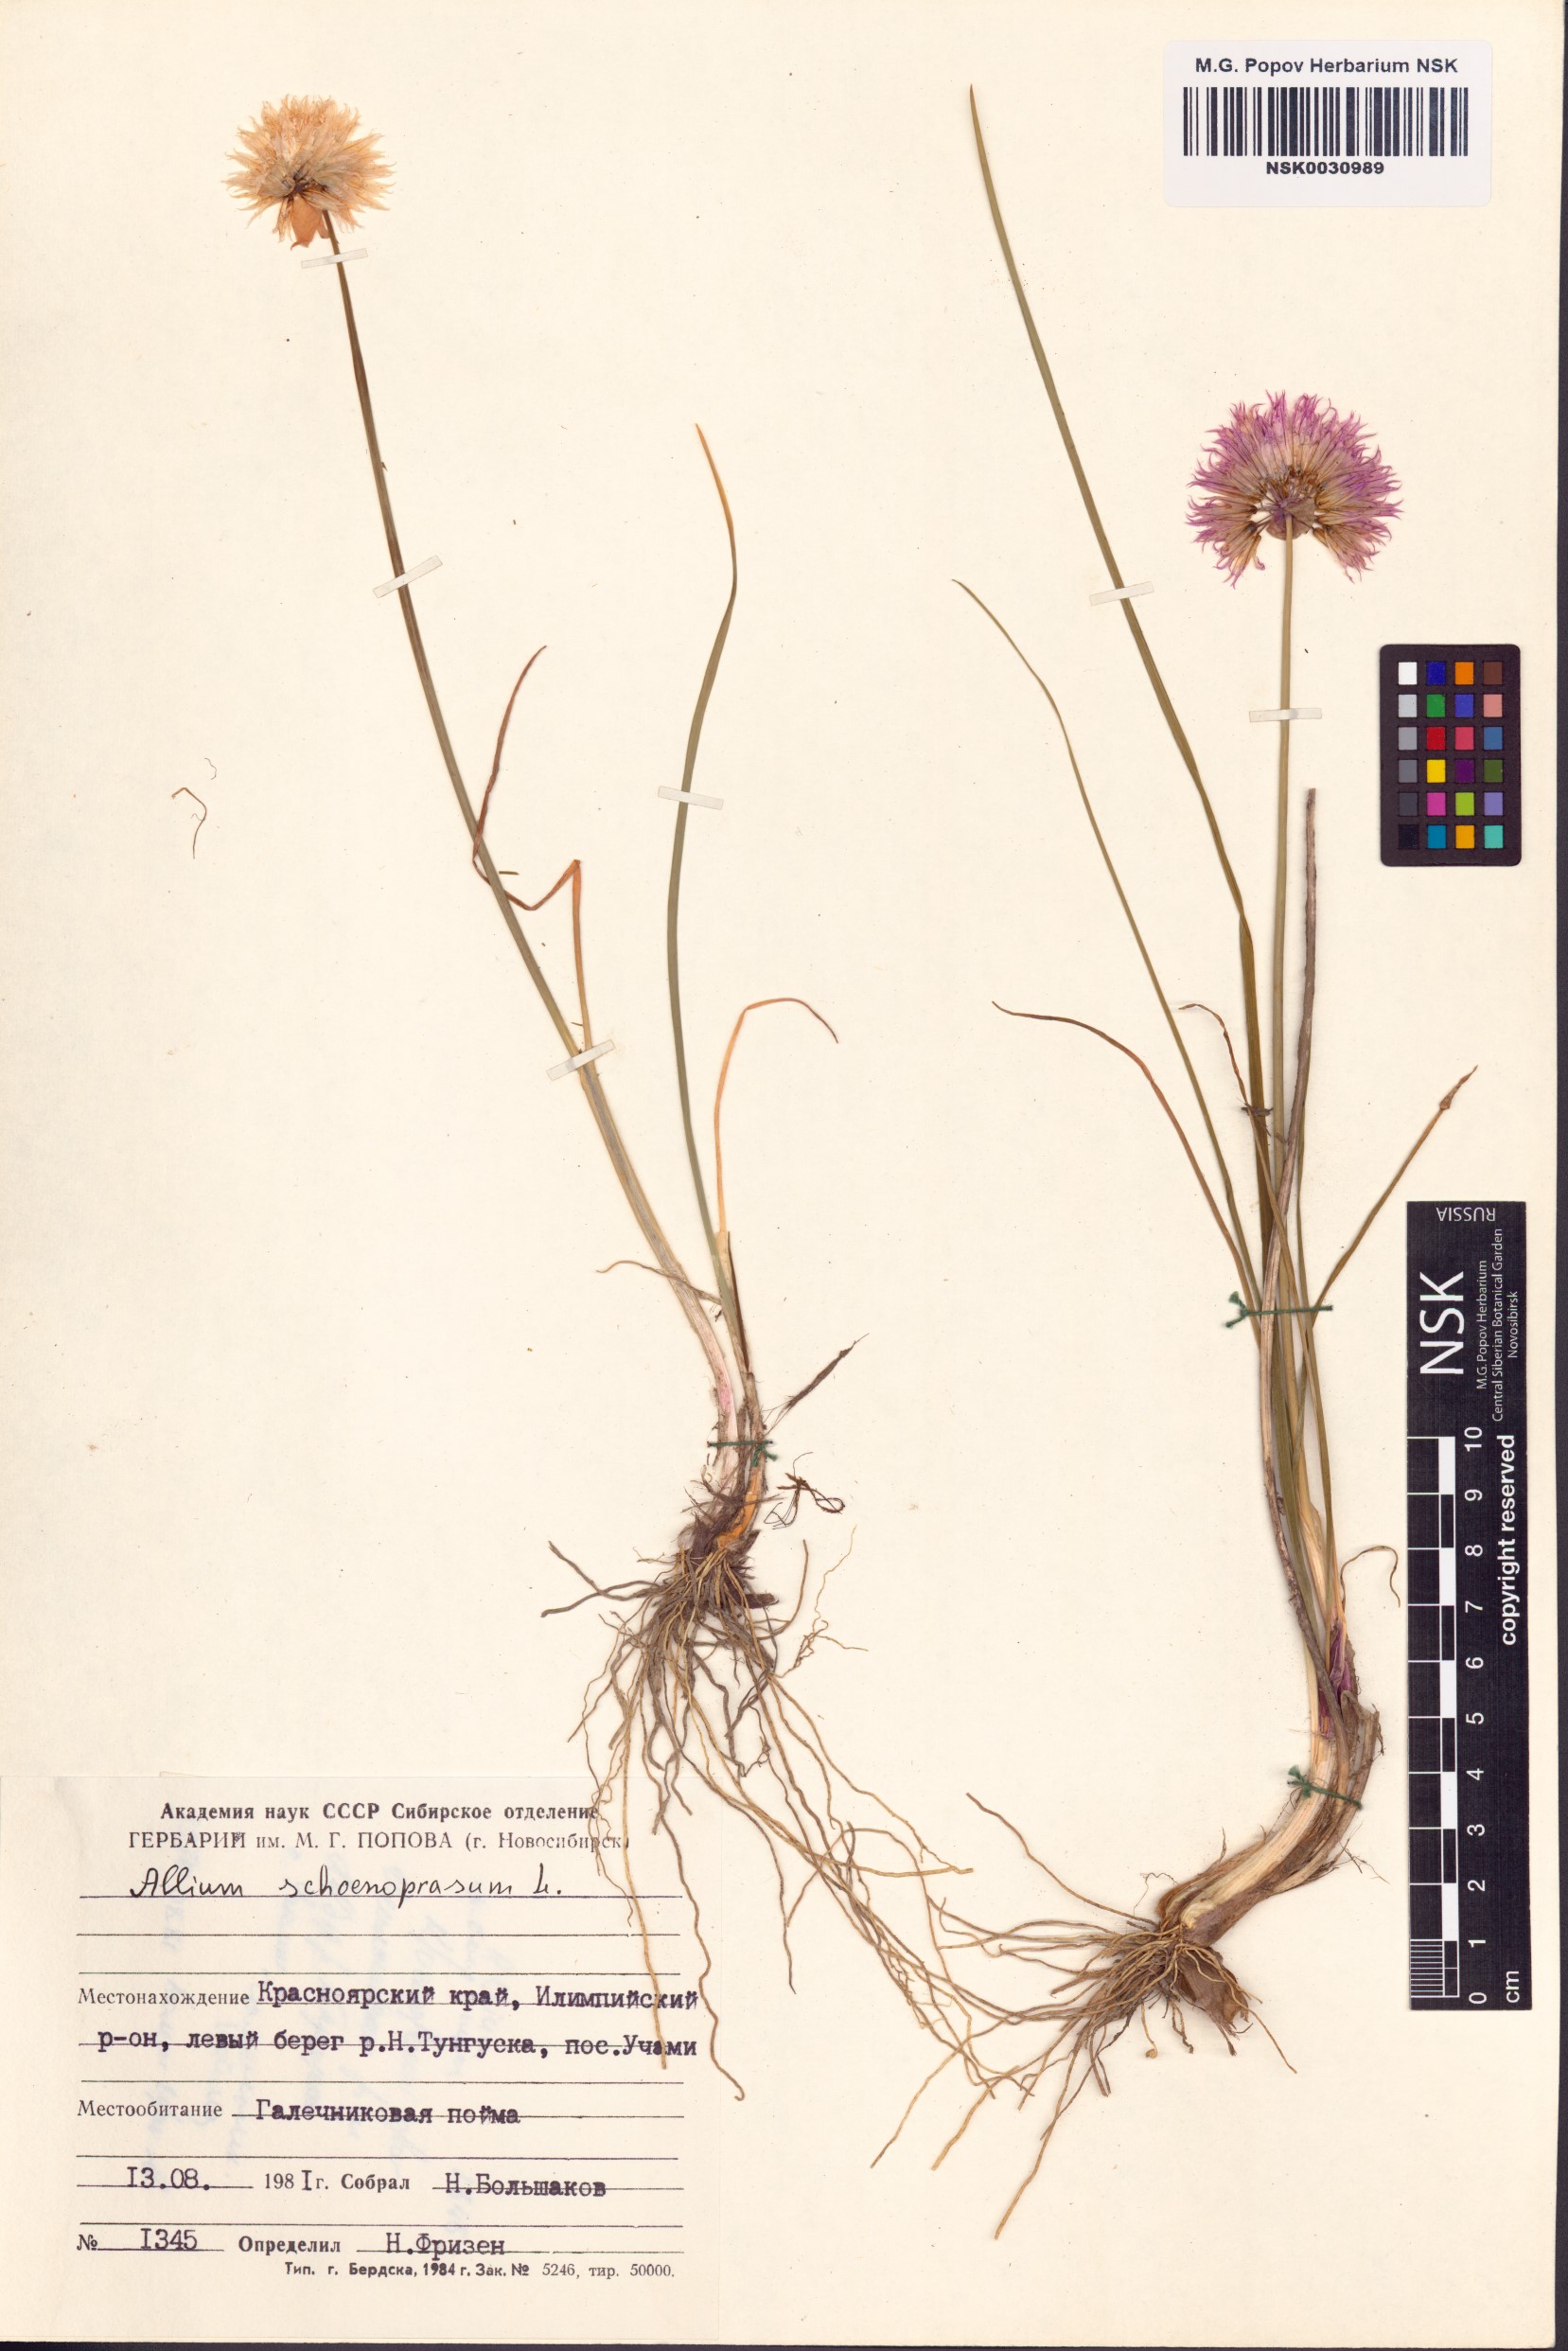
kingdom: Plantae
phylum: Tracheophyta
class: Liliopsida
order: Asparagales
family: Amaryllidaceae
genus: Allium
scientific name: Allium schoenoprasum
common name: Chives
